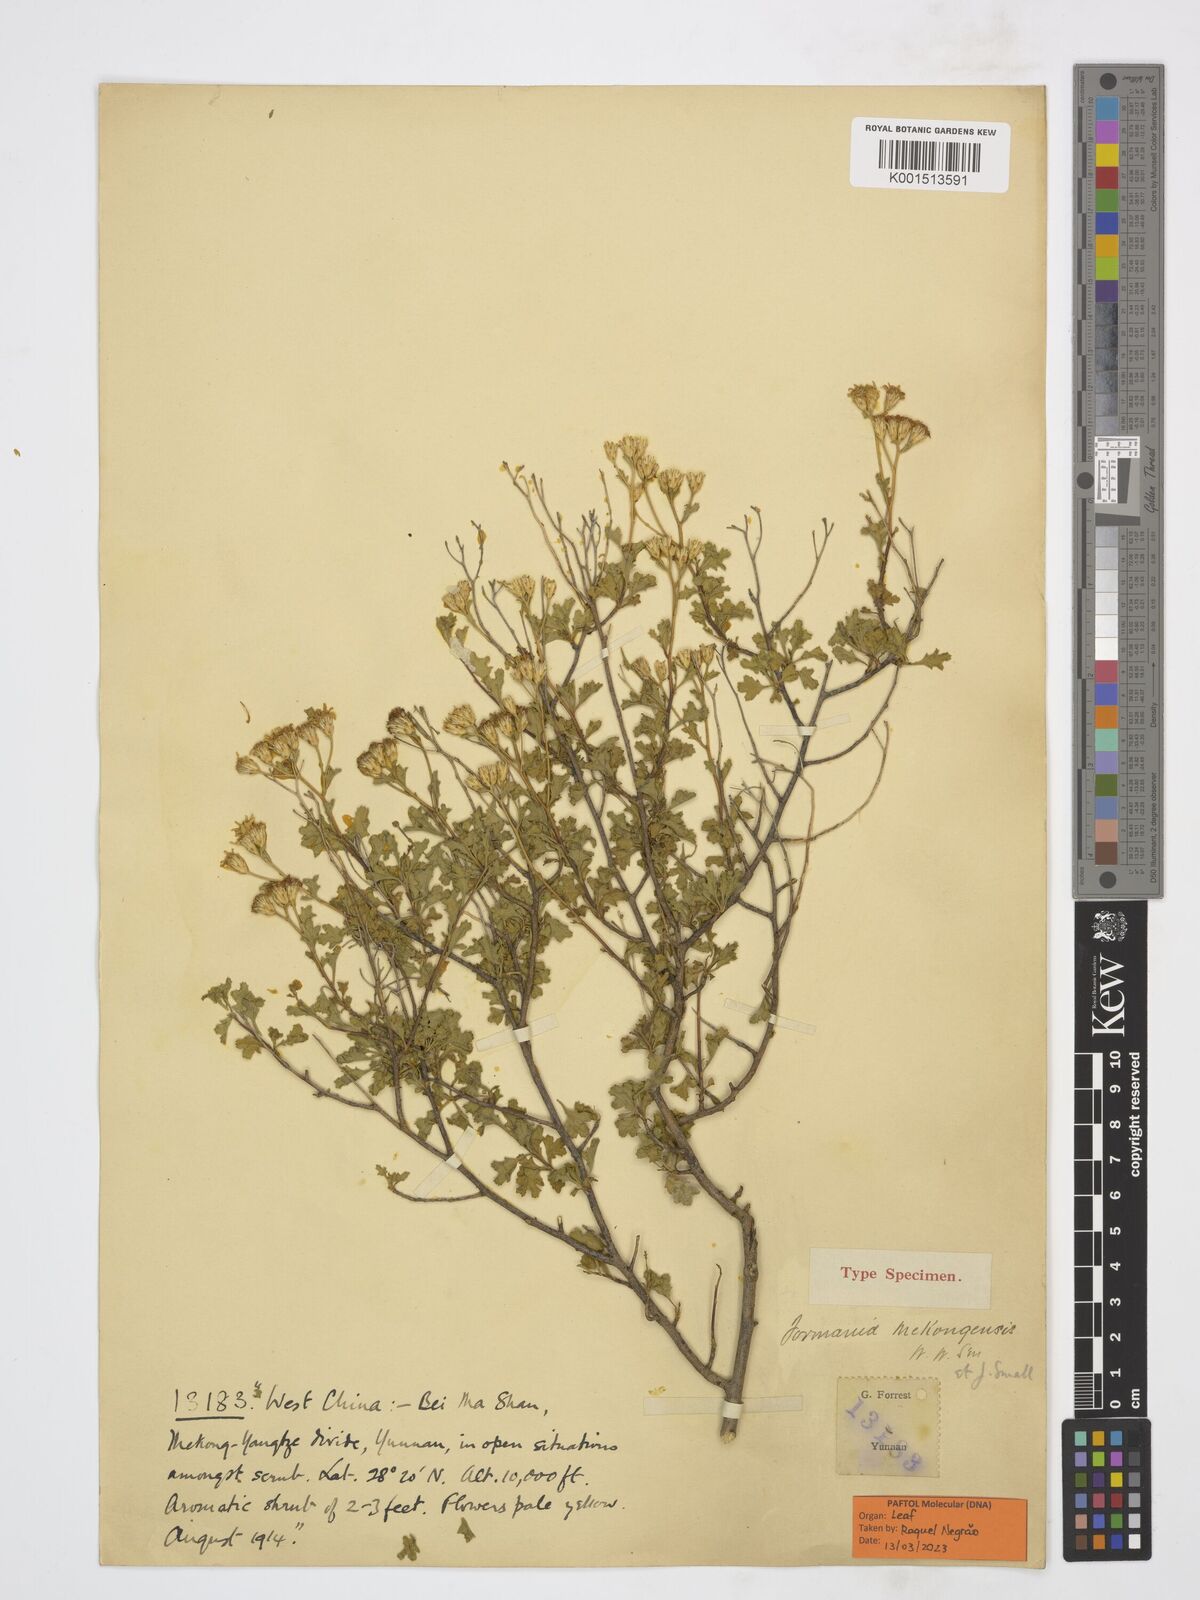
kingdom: Plantae
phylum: Tracheophyta
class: Magnoliopsida
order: Asterales
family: Asteraceae
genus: Formania
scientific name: Formania mekongensis
